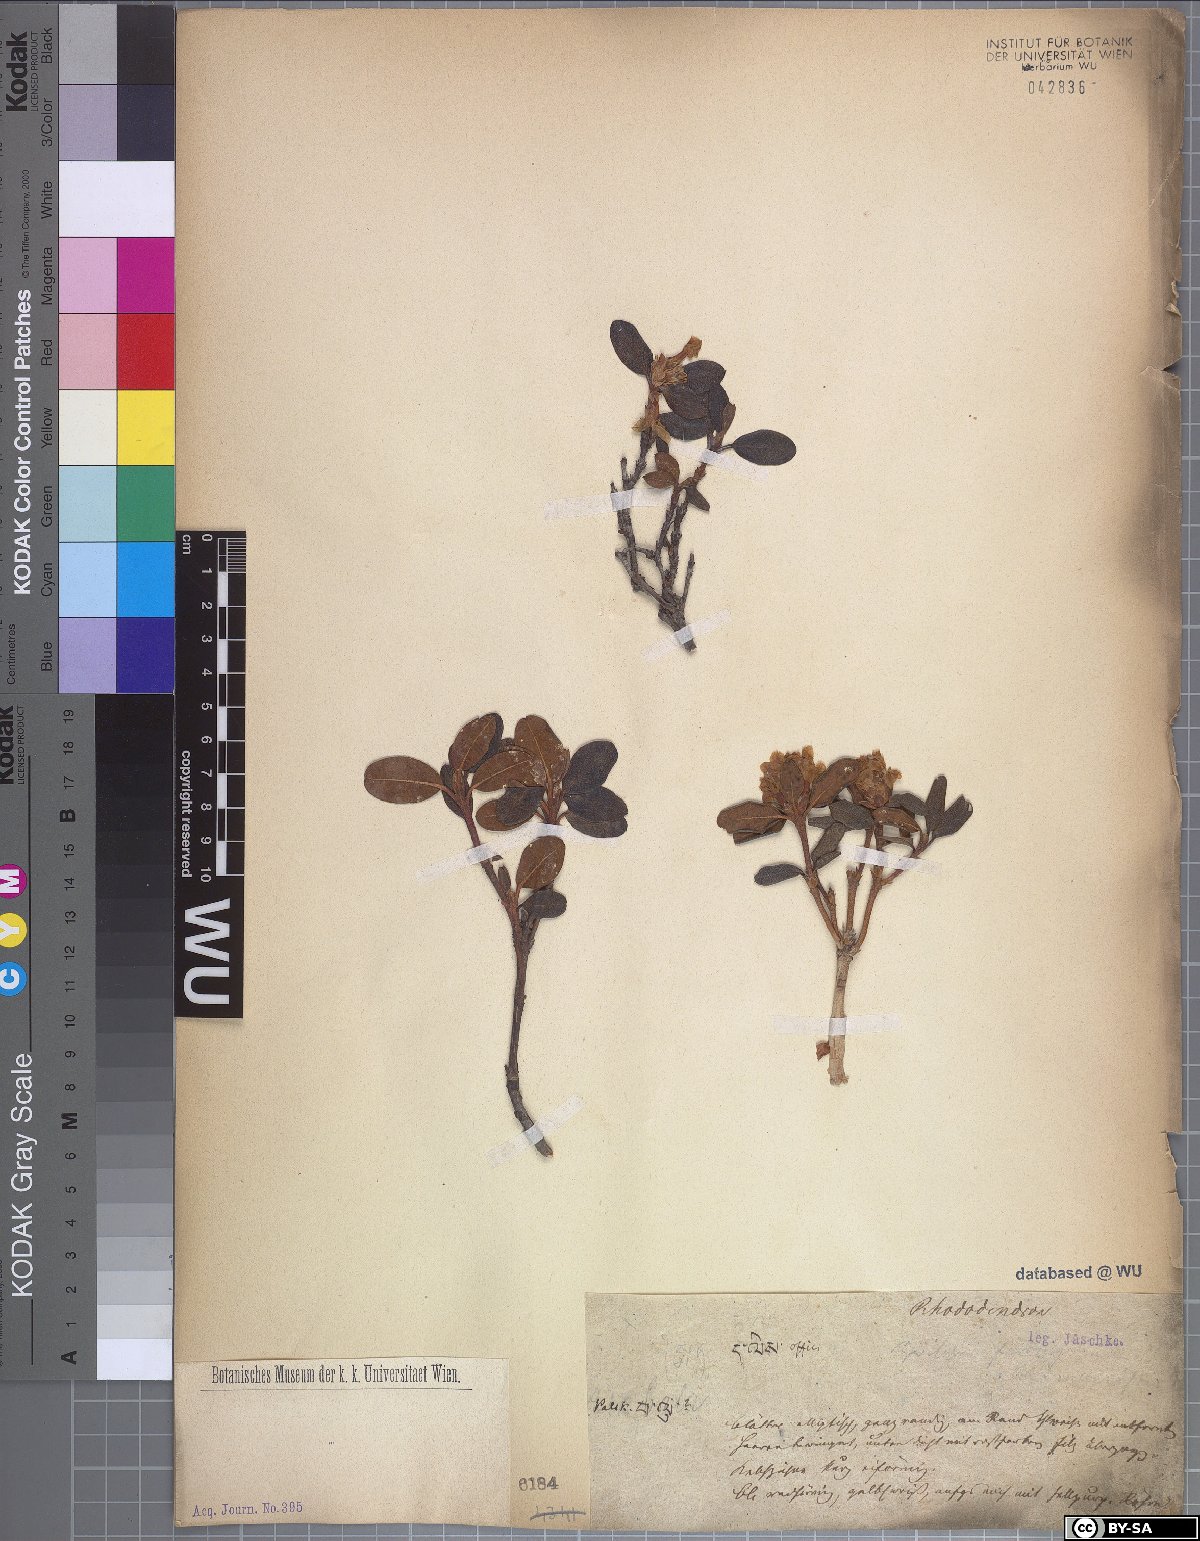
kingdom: Plantae
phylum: Tracheophyta
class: Magnoliopsida
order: Ericales
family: Ericaceae
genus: Rhododendron
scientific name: Rhododendron
